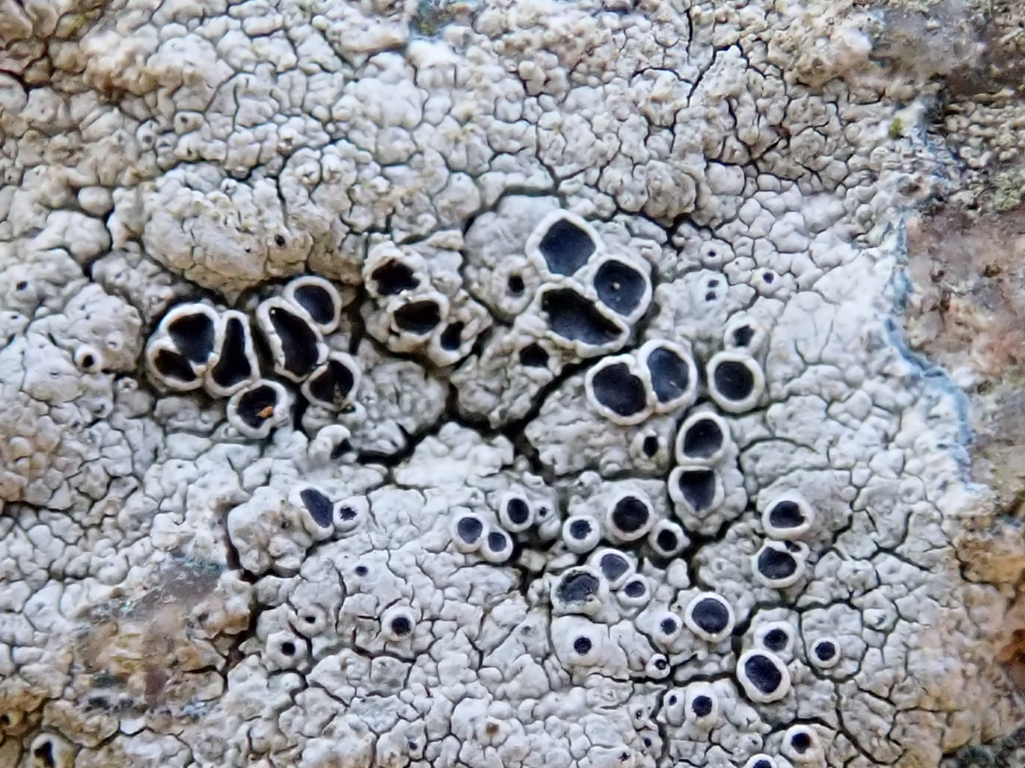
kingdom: Fungi
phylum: Ascomycota
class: Lecanoromycetes
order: Lecanorales
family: Tephromelataceae
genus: Tephromela
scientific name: Tephromela atra
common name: sortfrugtet kantskivelav
